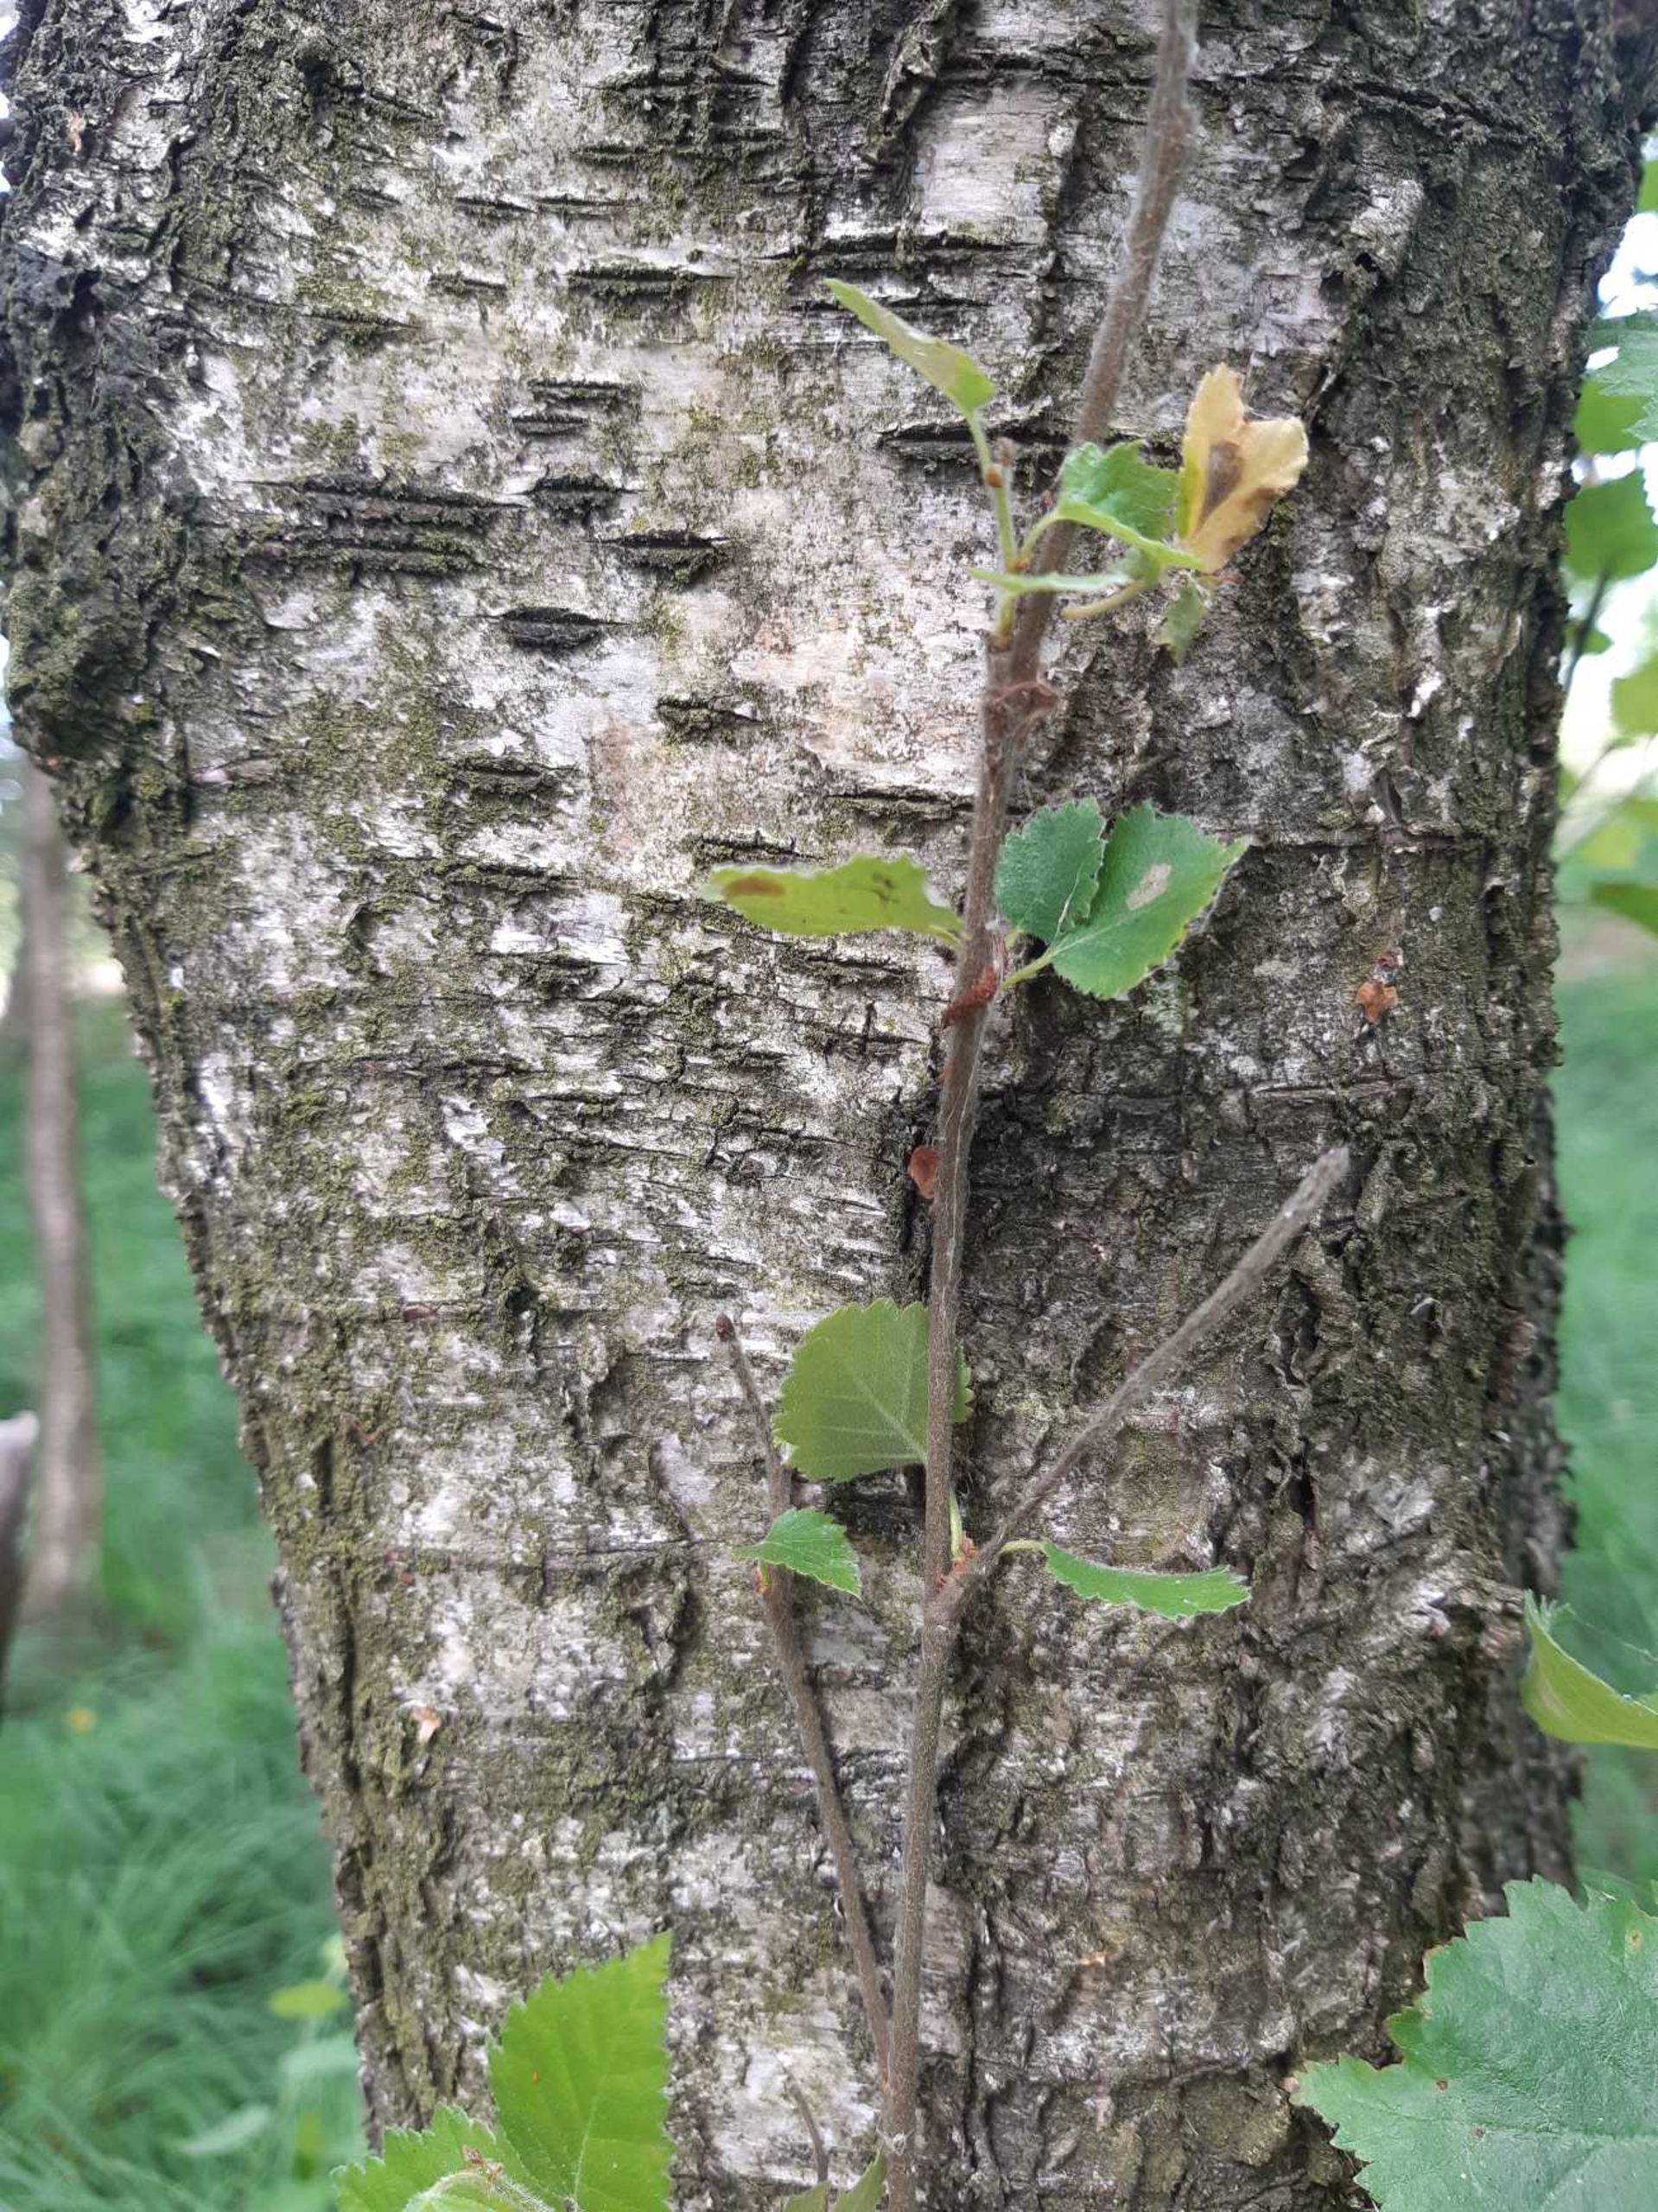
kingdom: Plantae
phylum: Tracheophyta
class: Magnoliopsida
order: Fagales
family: Betulaceae
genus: Betula
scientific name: Betula pubescens
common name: Dun-birk
